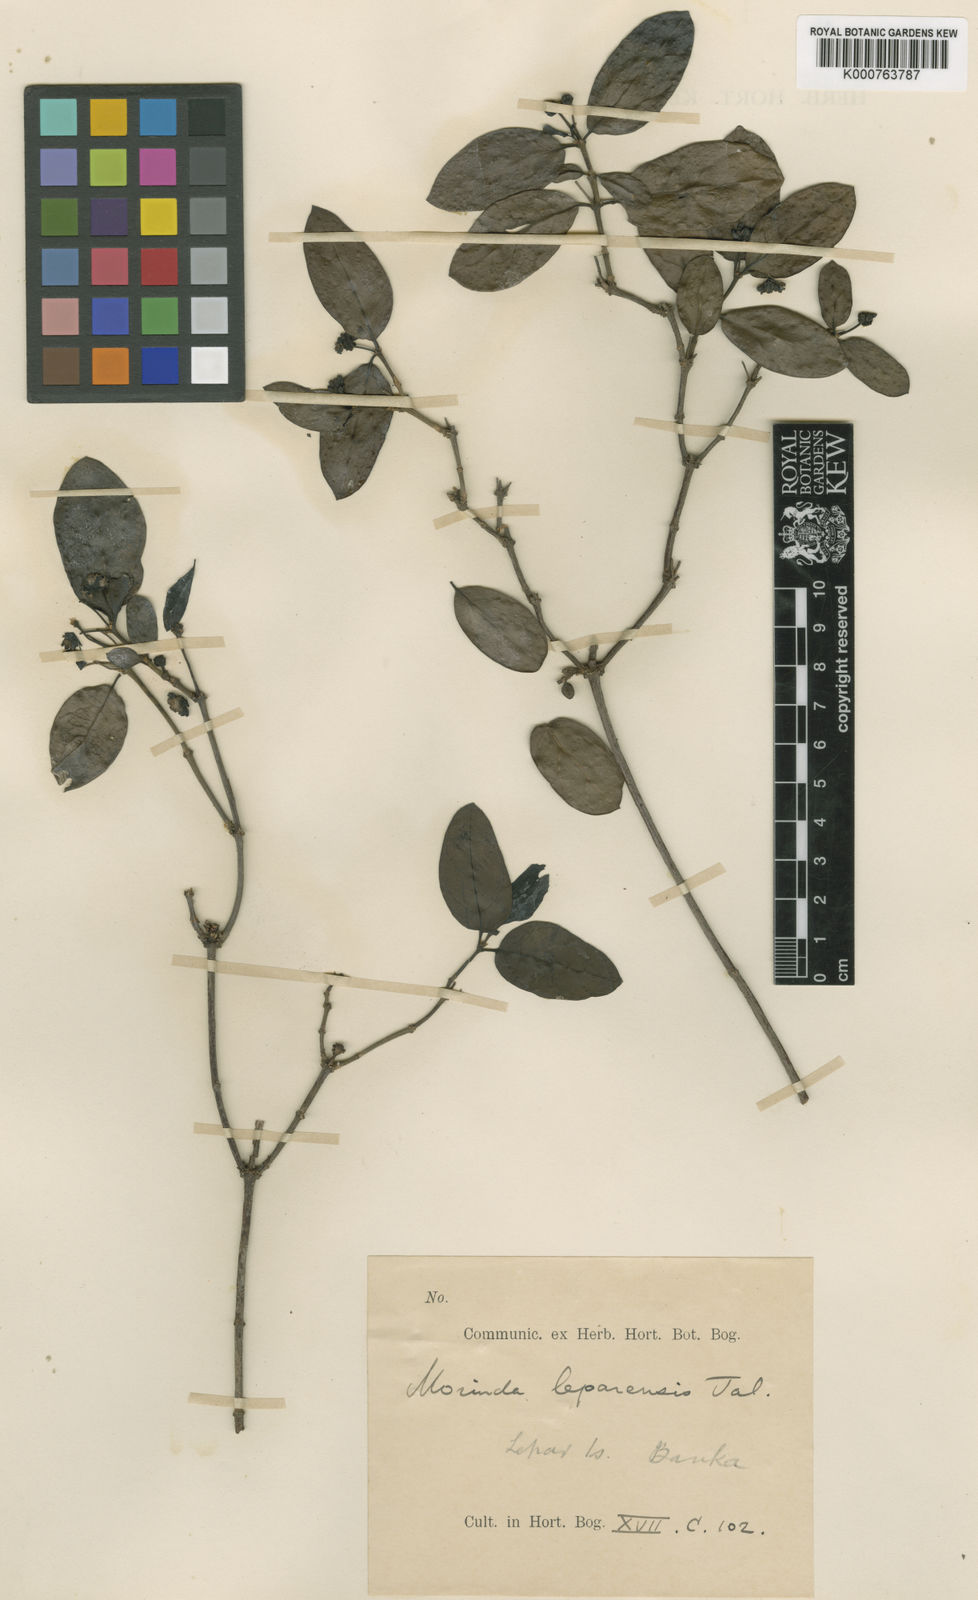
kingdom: Plantae
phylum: Tracheophyta
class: Magnoliopsida
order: Gentianales
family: Rubiaceae
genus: Morinda
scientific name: Morinda
